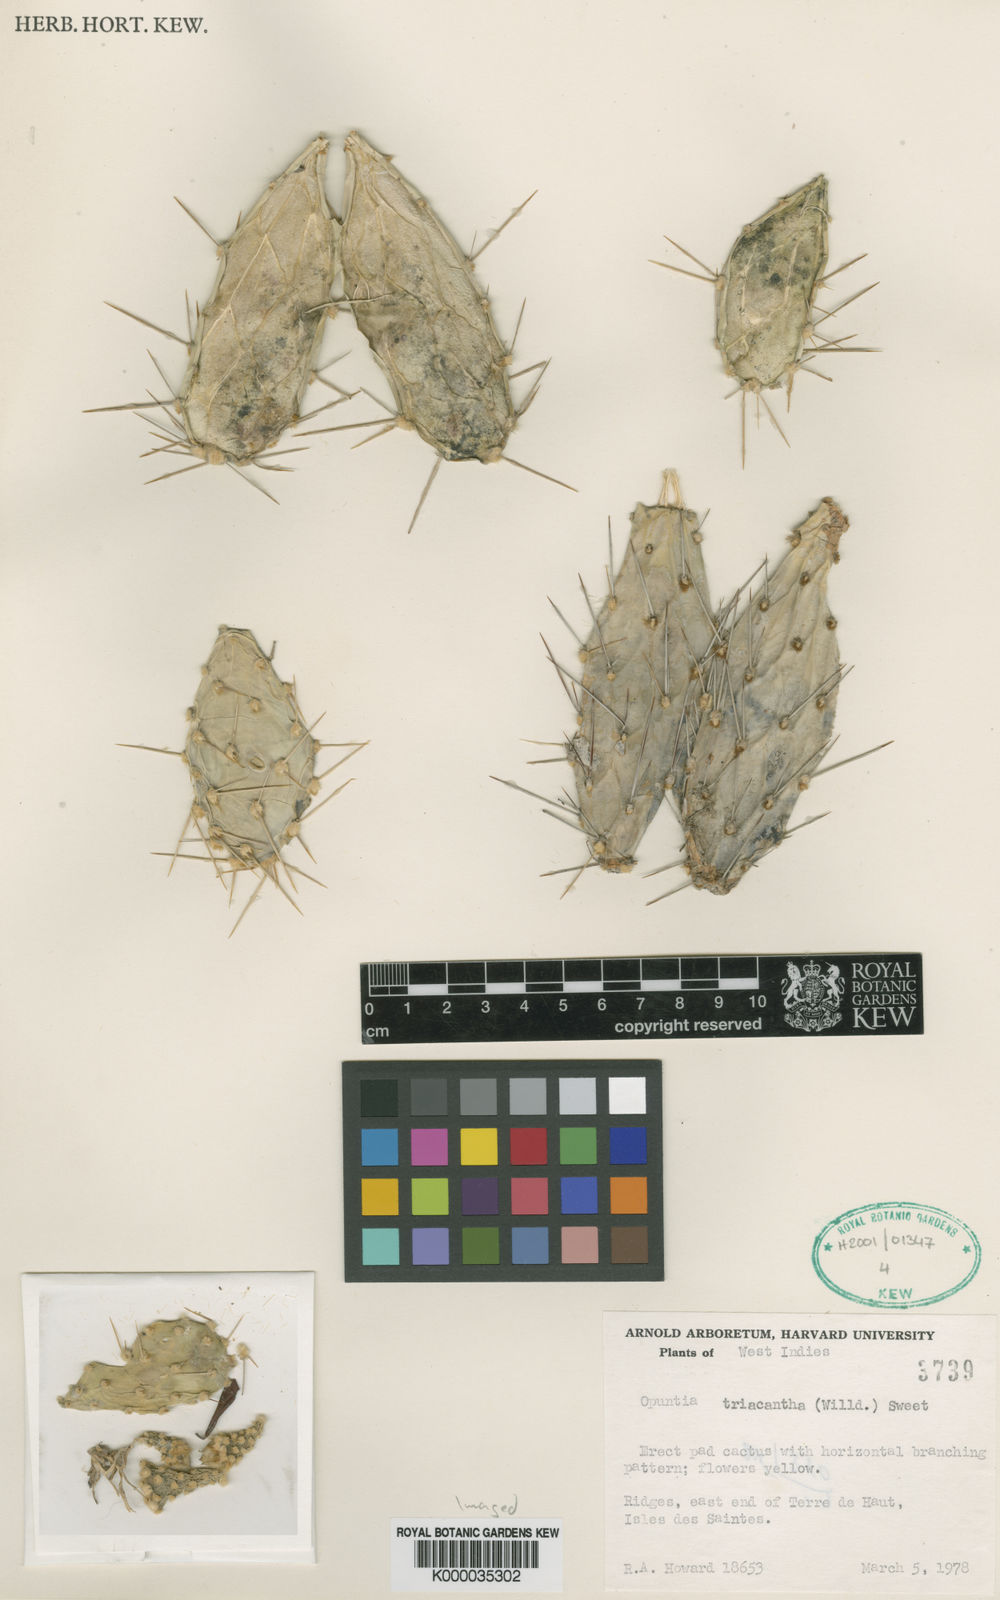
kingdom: Plantae
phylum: Tracheophyta
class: Magnoliopsida
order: Caryophyllales
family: Cactaceae
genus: Opuntia
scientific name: Opuntia
